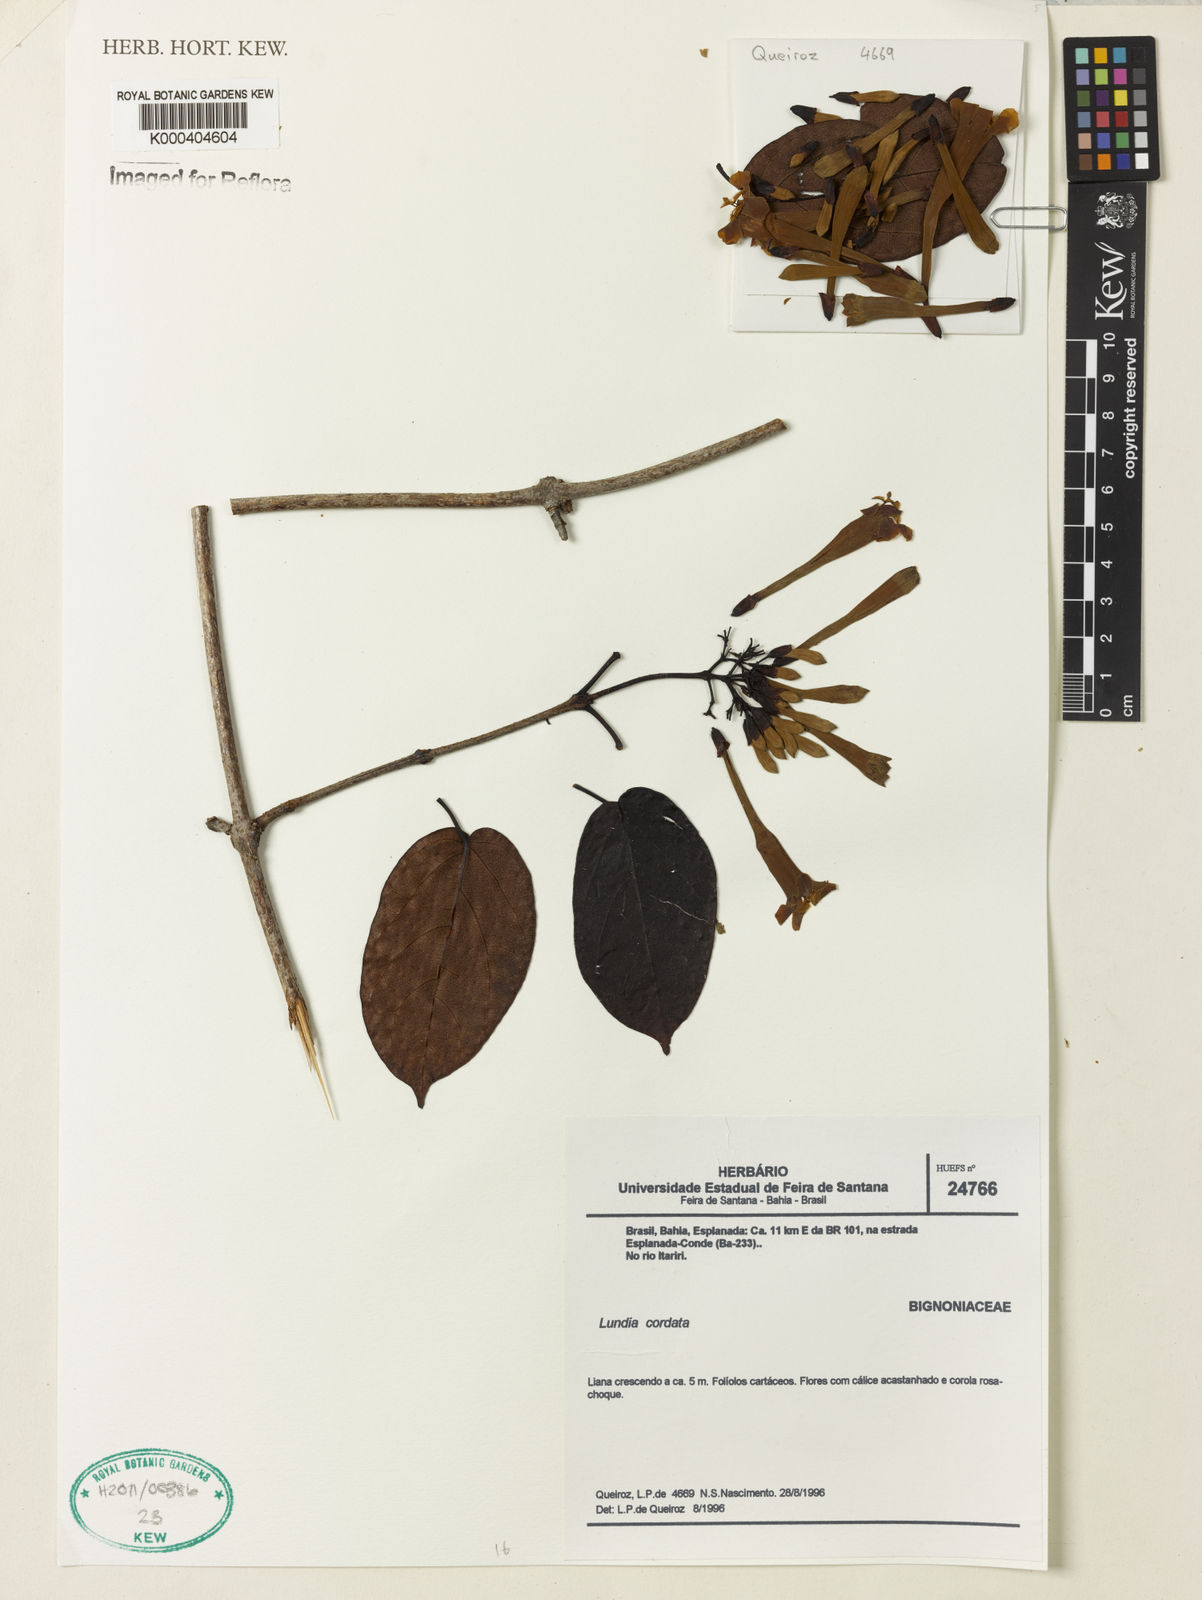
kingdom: Plantae
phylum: Tracheophyta
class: Magnoliopsida
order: Lamiales
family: Bignoniaceae
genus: Lundia
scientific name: Lundia corymbifera
